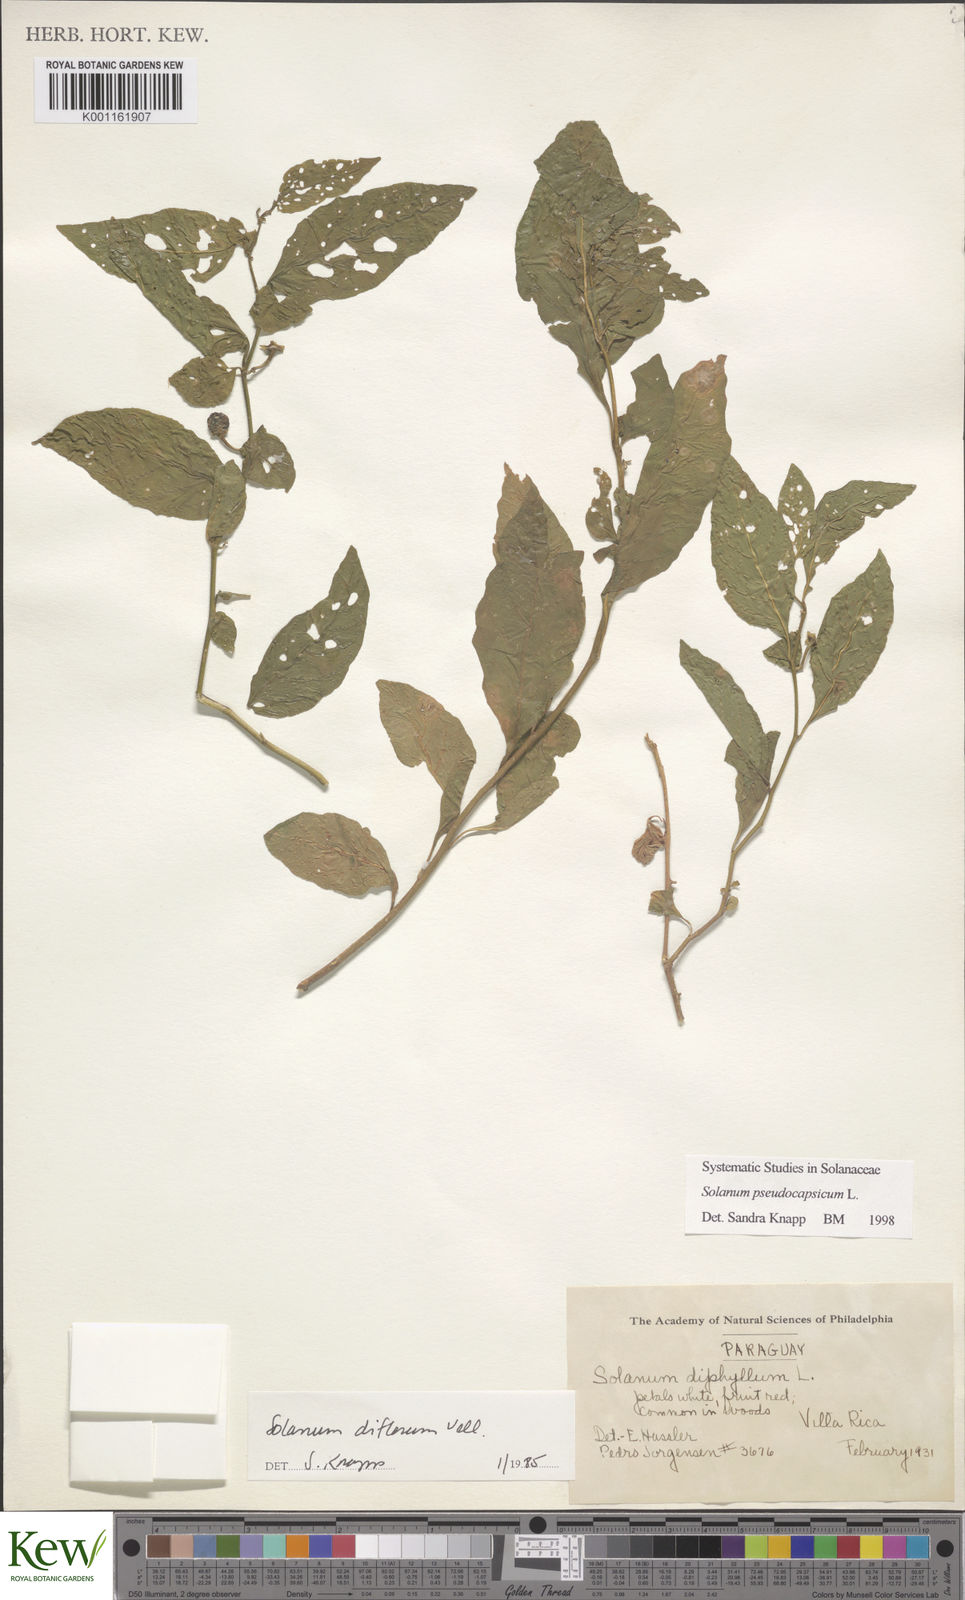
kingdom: Plantae
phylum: Tracheophyta
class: Magnoliopsida
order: Solanales
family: Solanaceae
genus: Solanum
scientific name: Solanum pseudocapsicum
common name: Jerusalem cherry
